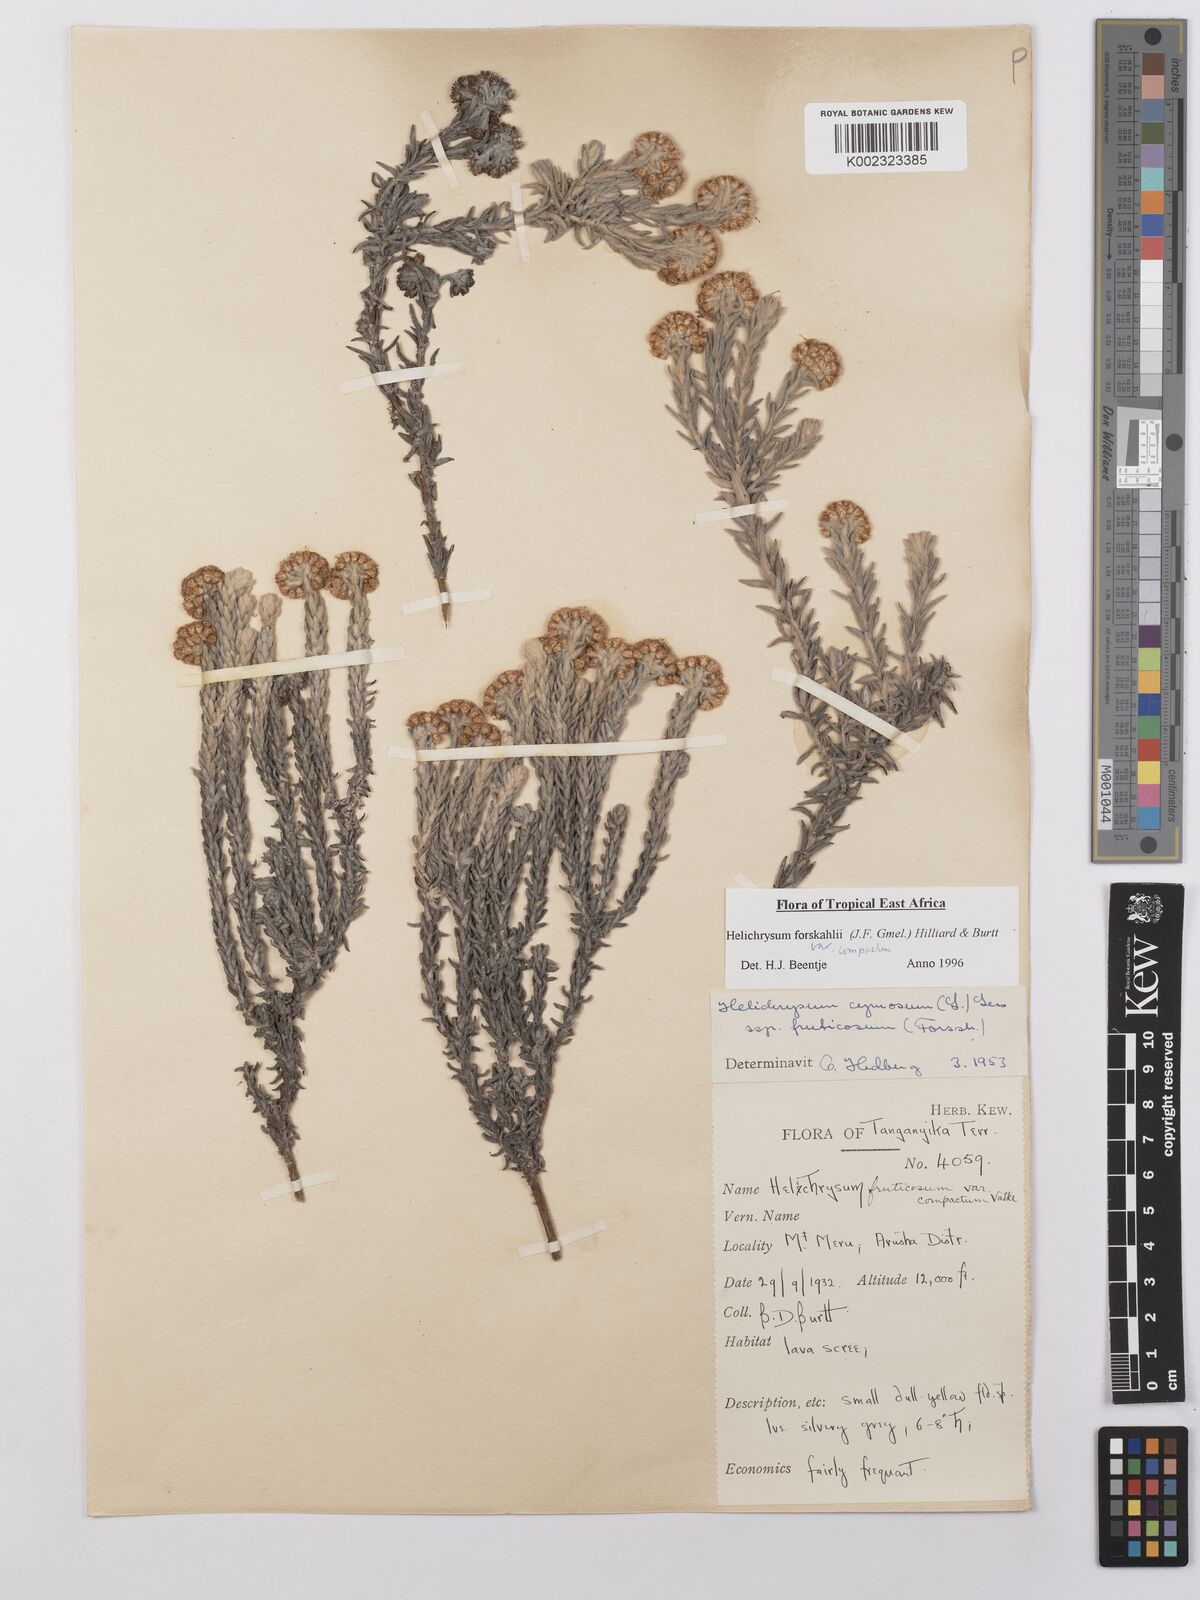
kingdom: Plantae
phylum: Tracheophyta
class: Magnoliopsida
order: Asterales
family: Asteraceae
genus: Helichrysum
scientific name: Helichrysum forskahlii
